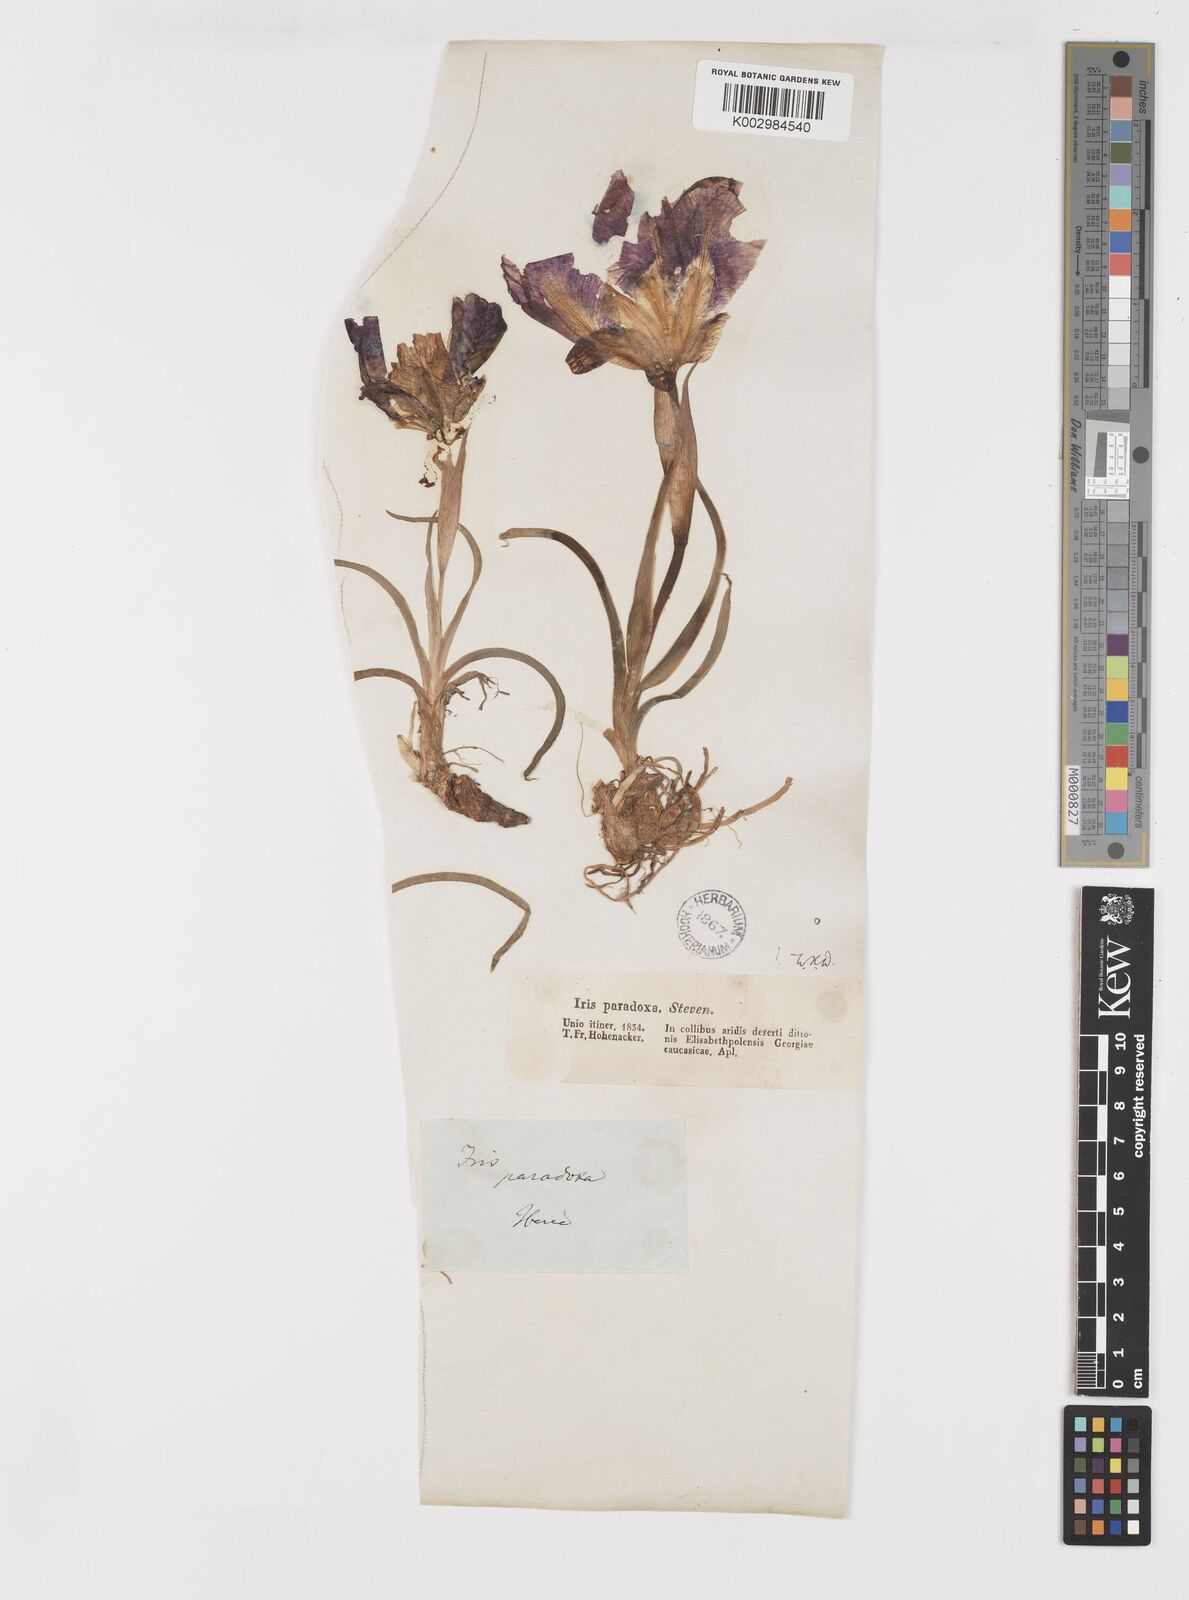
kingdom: Plantae
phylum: Tracheophyta
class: Liliopsida
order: Asparagales
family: Iridaceae
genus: Iris
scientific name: Iris paradoxa
